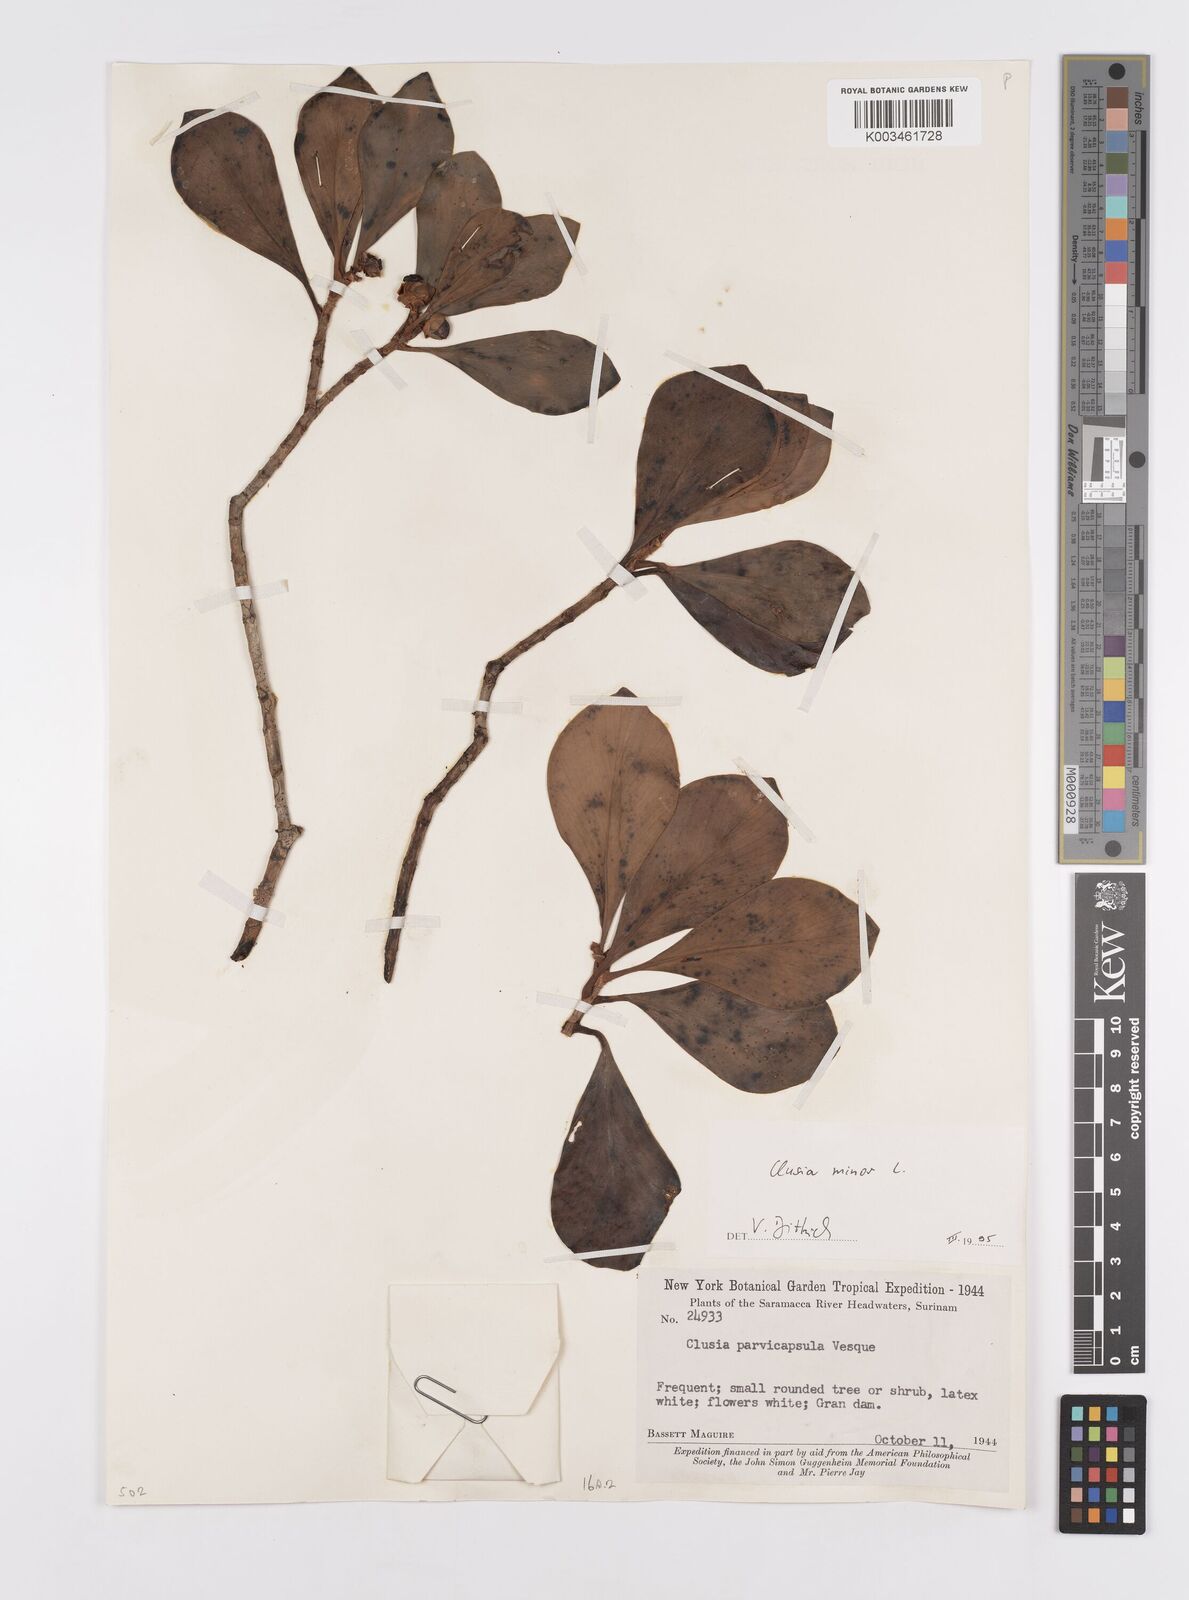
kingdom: Plantae
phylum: Tracheophyta
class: Magnoliopsida
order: Malpighiales
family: Clusiaceae
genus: Clusia
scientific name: Clusia minor
